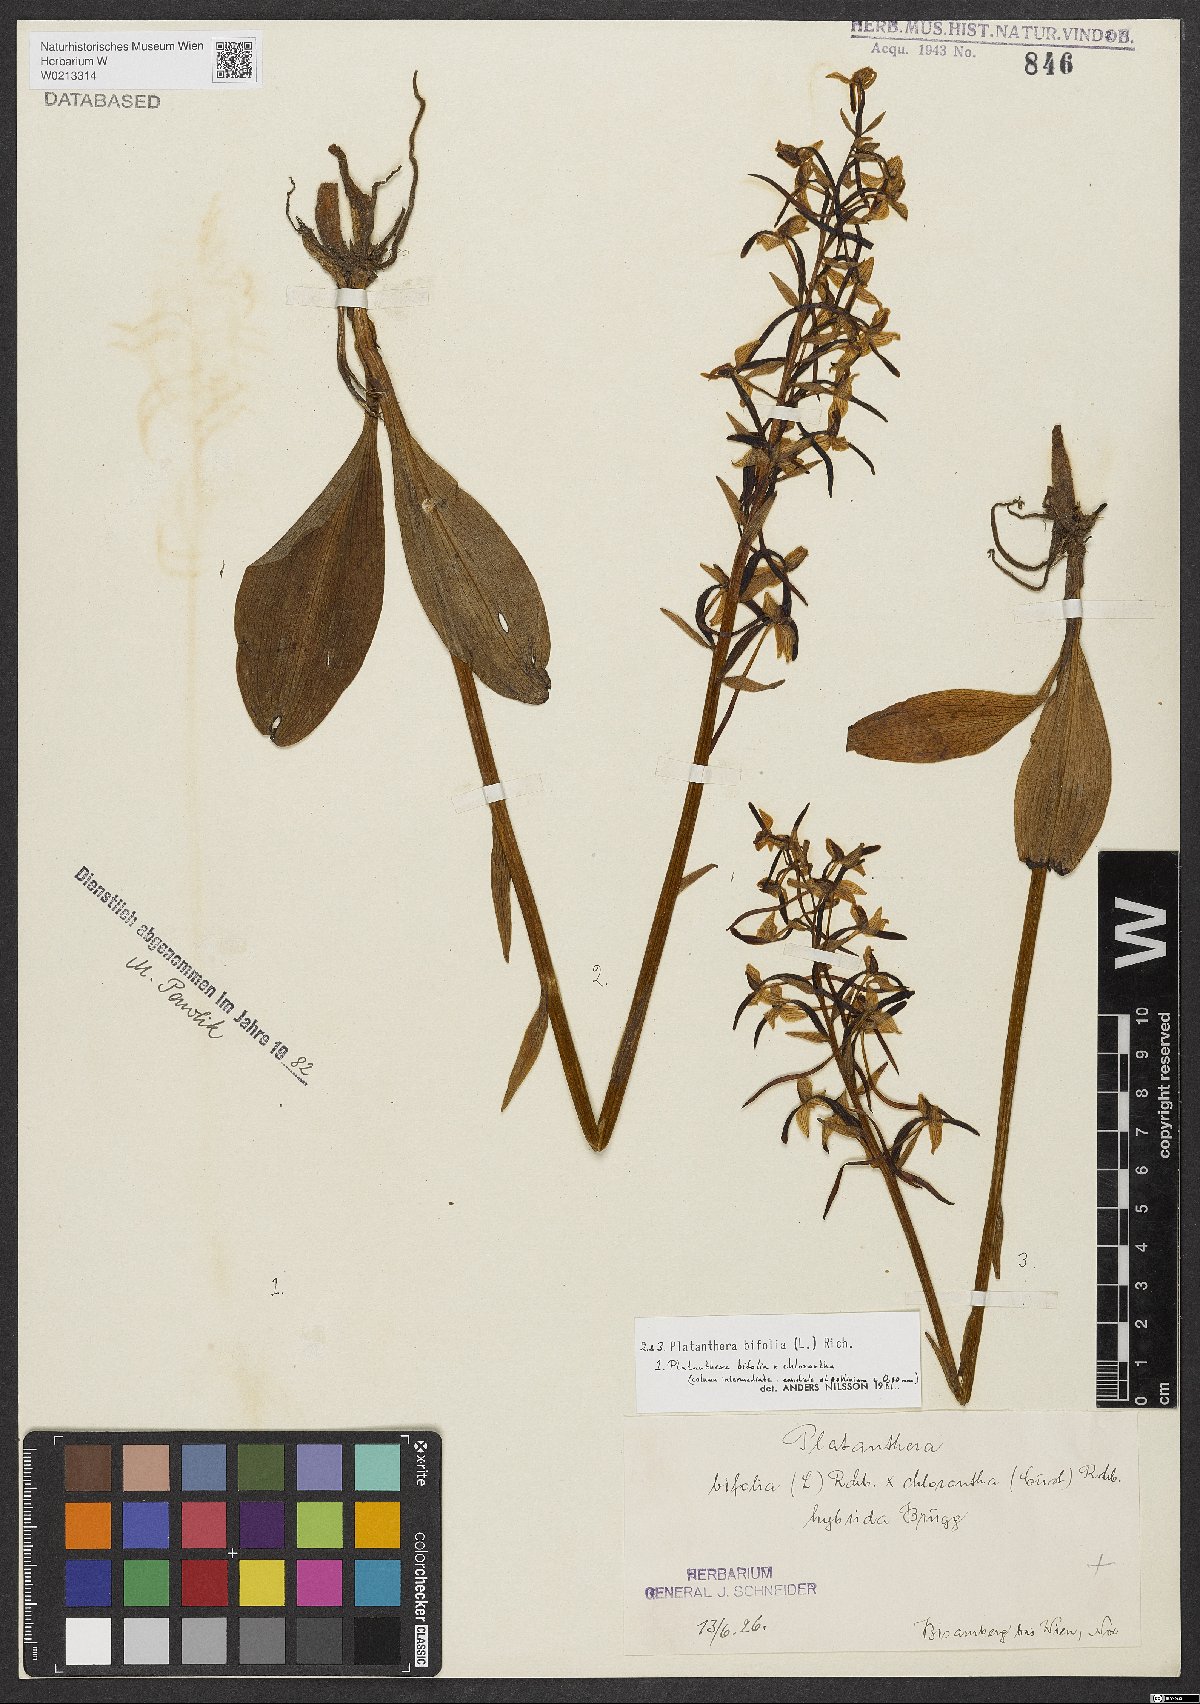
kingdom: Plantae
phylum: Tracheophyta
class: Liliopsida
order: Asparagales
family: Orchidaceae
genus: Platanthera
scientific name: Platanthera bifolia
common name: Lesser butterfly-orchid
